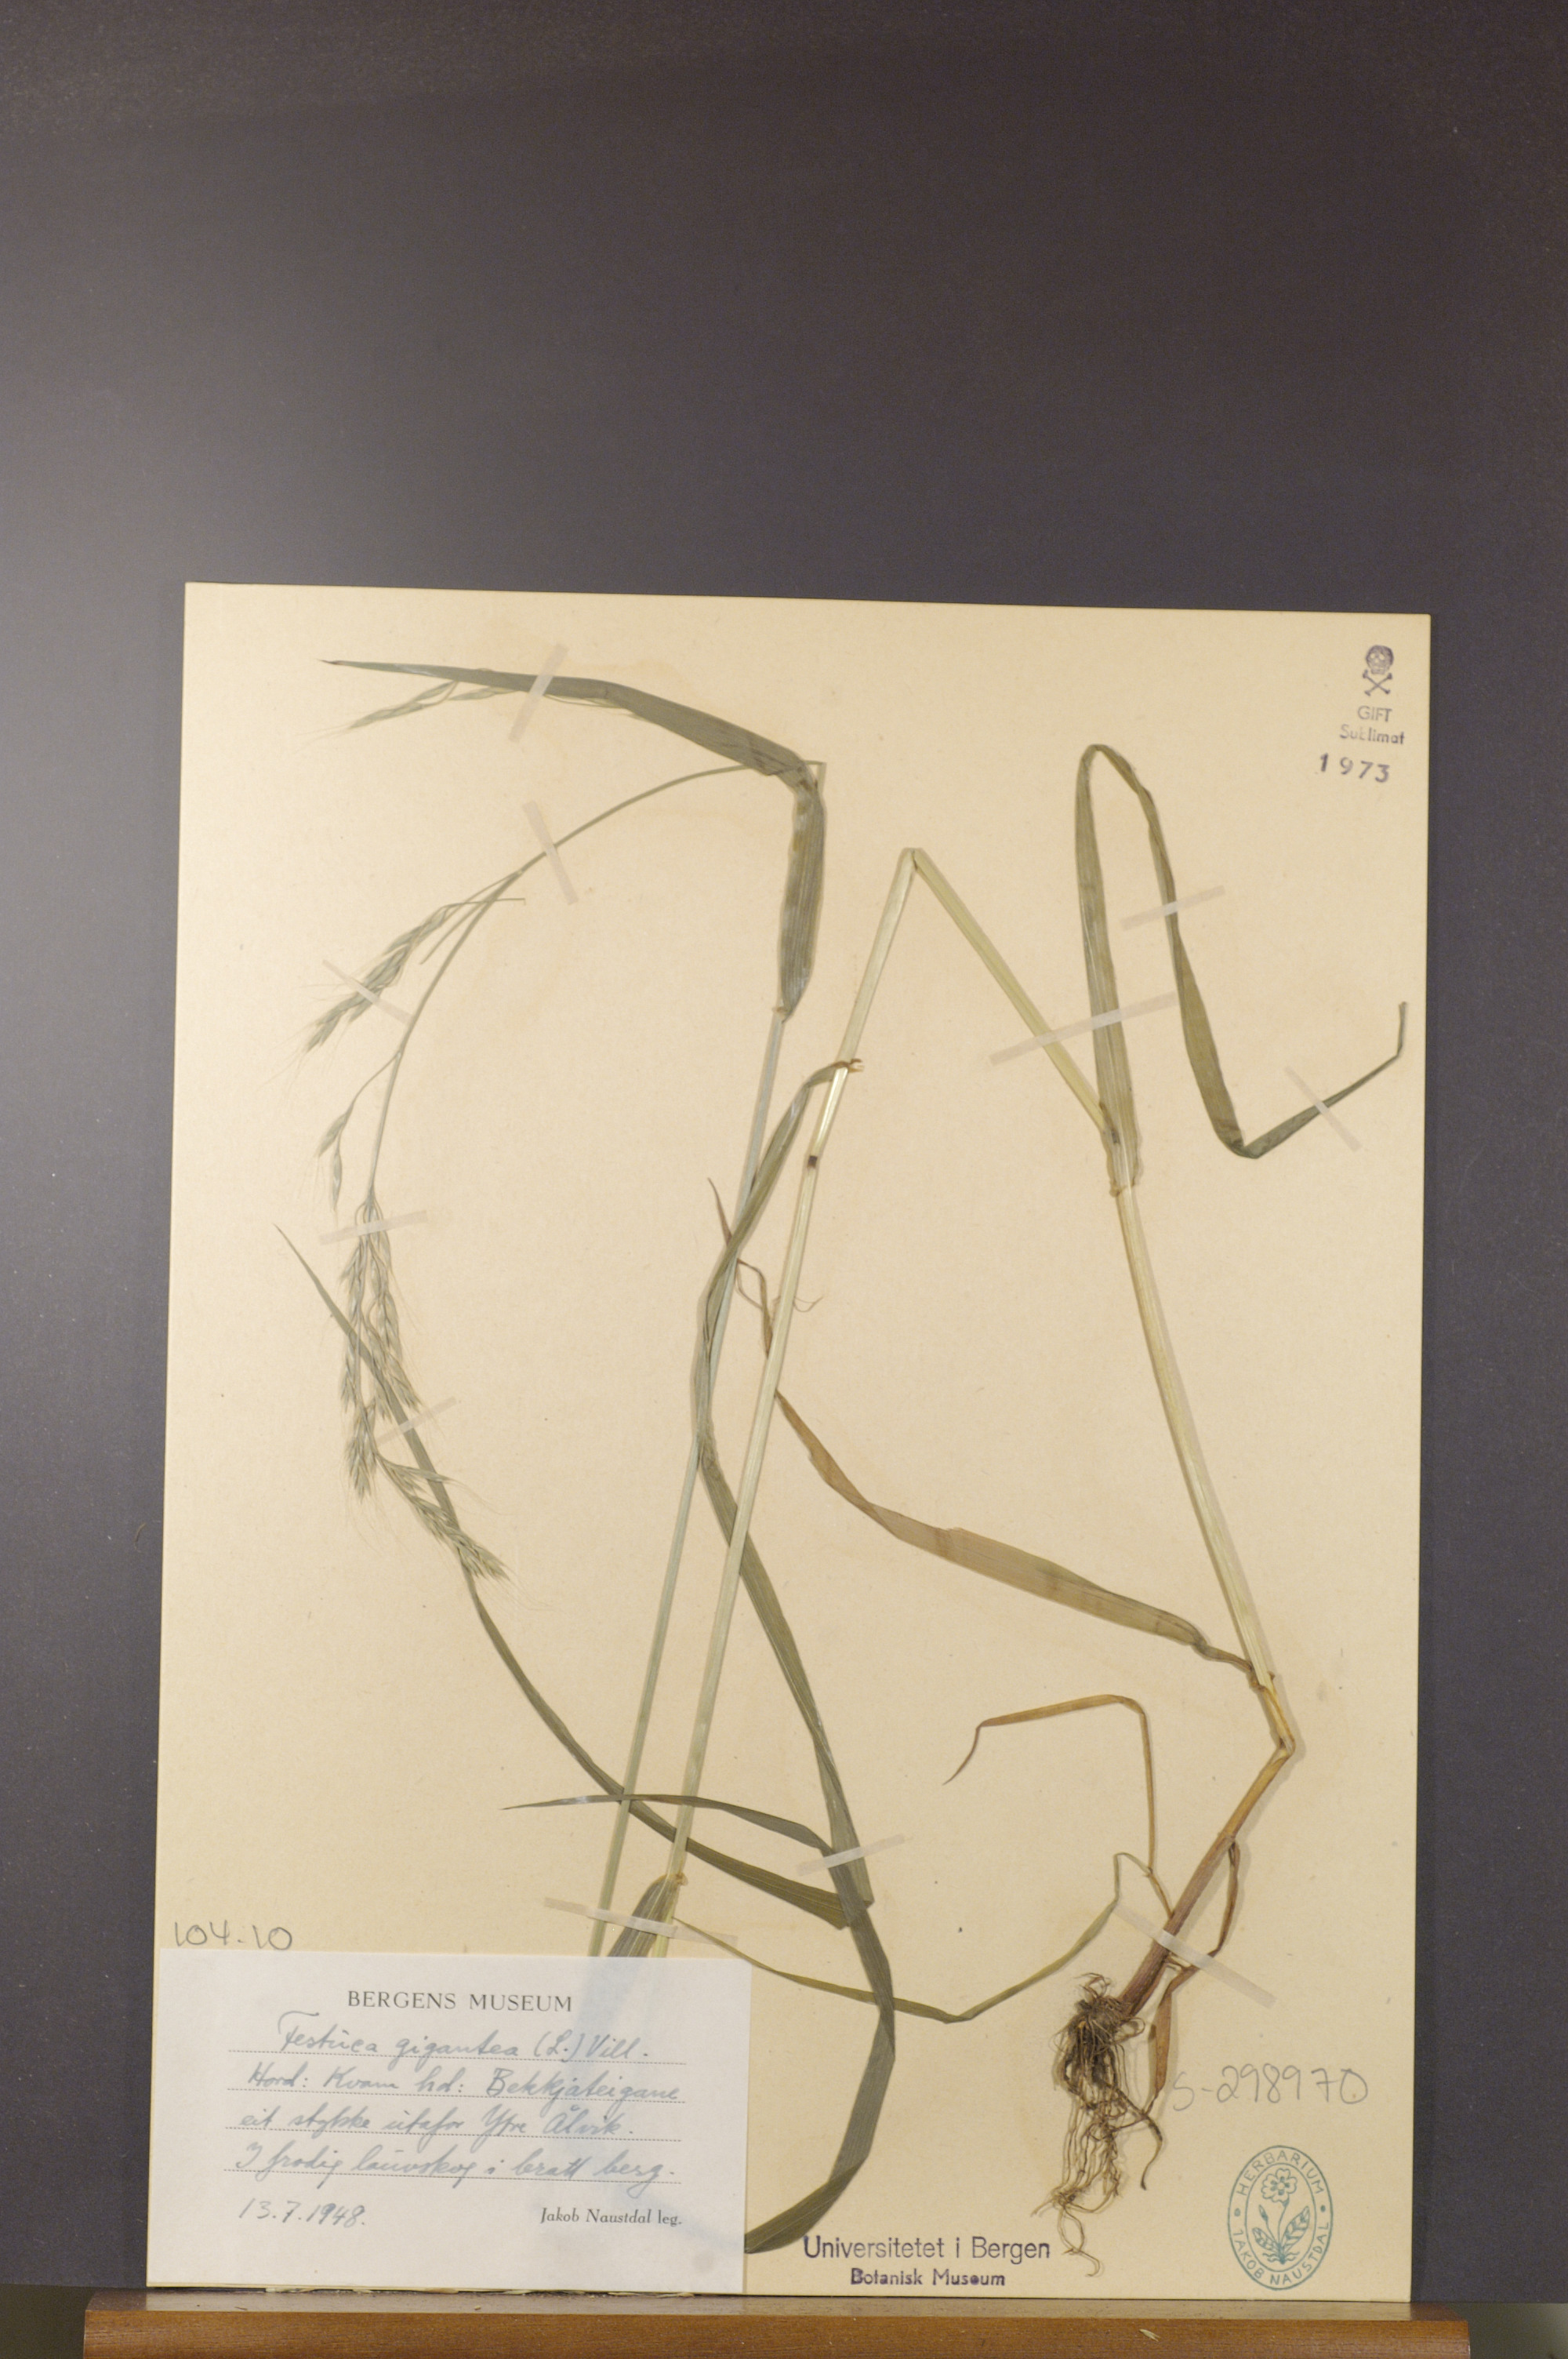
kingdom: Plantae
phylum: Tracheophyta
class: Liliopsida
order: Poales
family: Poaceae
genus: Lolium
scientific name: Lolium giganteum
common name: Giant fescue
